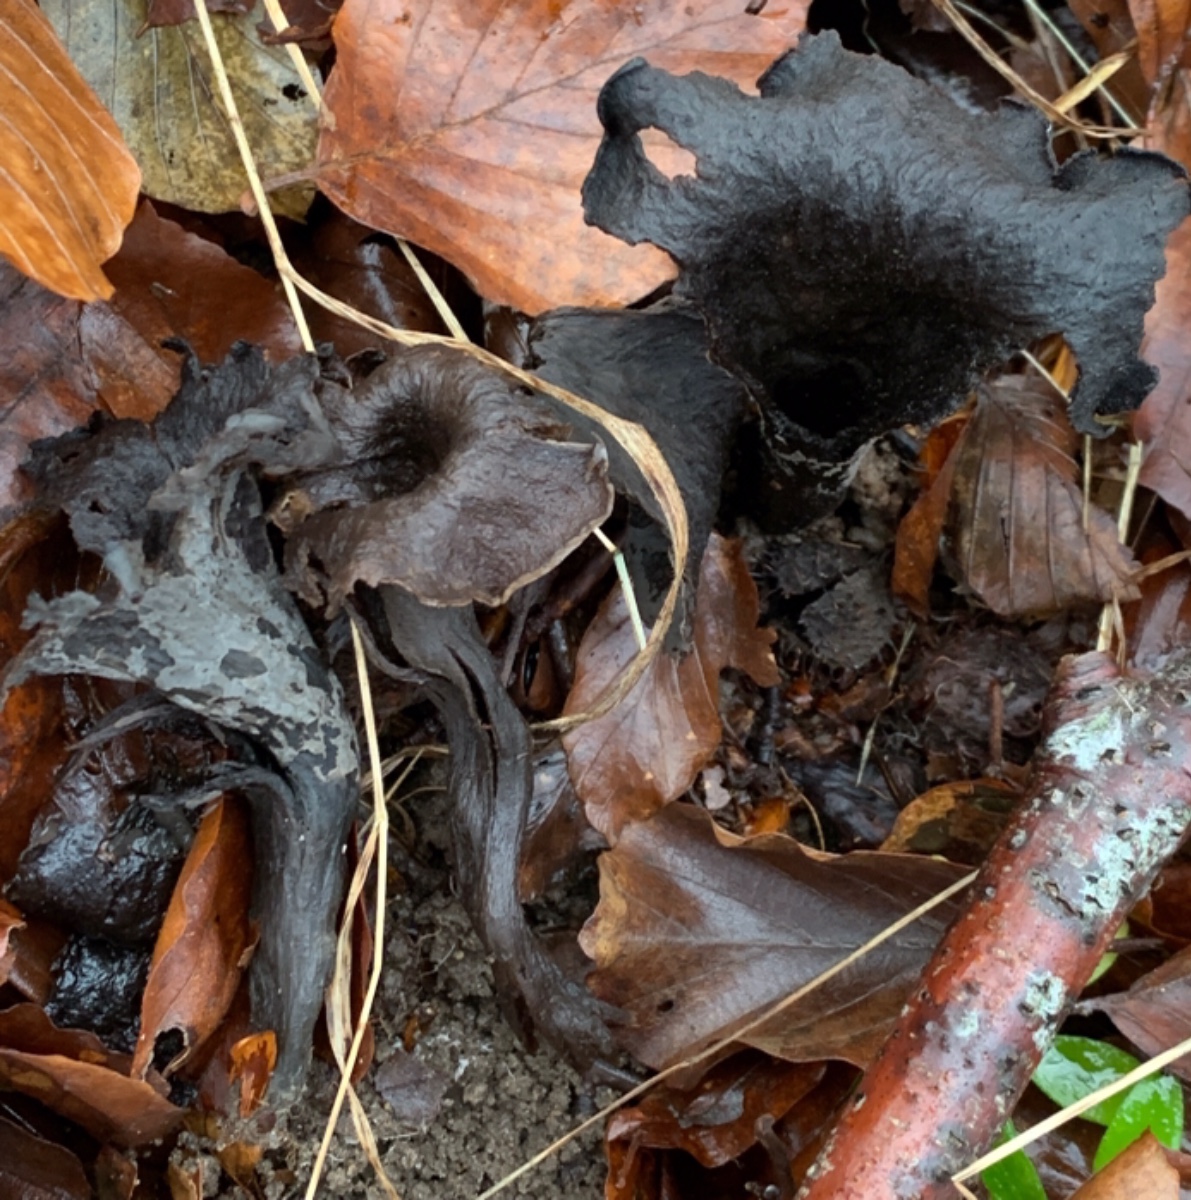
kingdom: Fungi
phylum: Basidiomycota
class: Agaricomycetes
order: Cantharellales
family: Hydnaceae
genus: Craterellus
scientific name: Craterellus cornucopioides
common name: trompetsvamp
